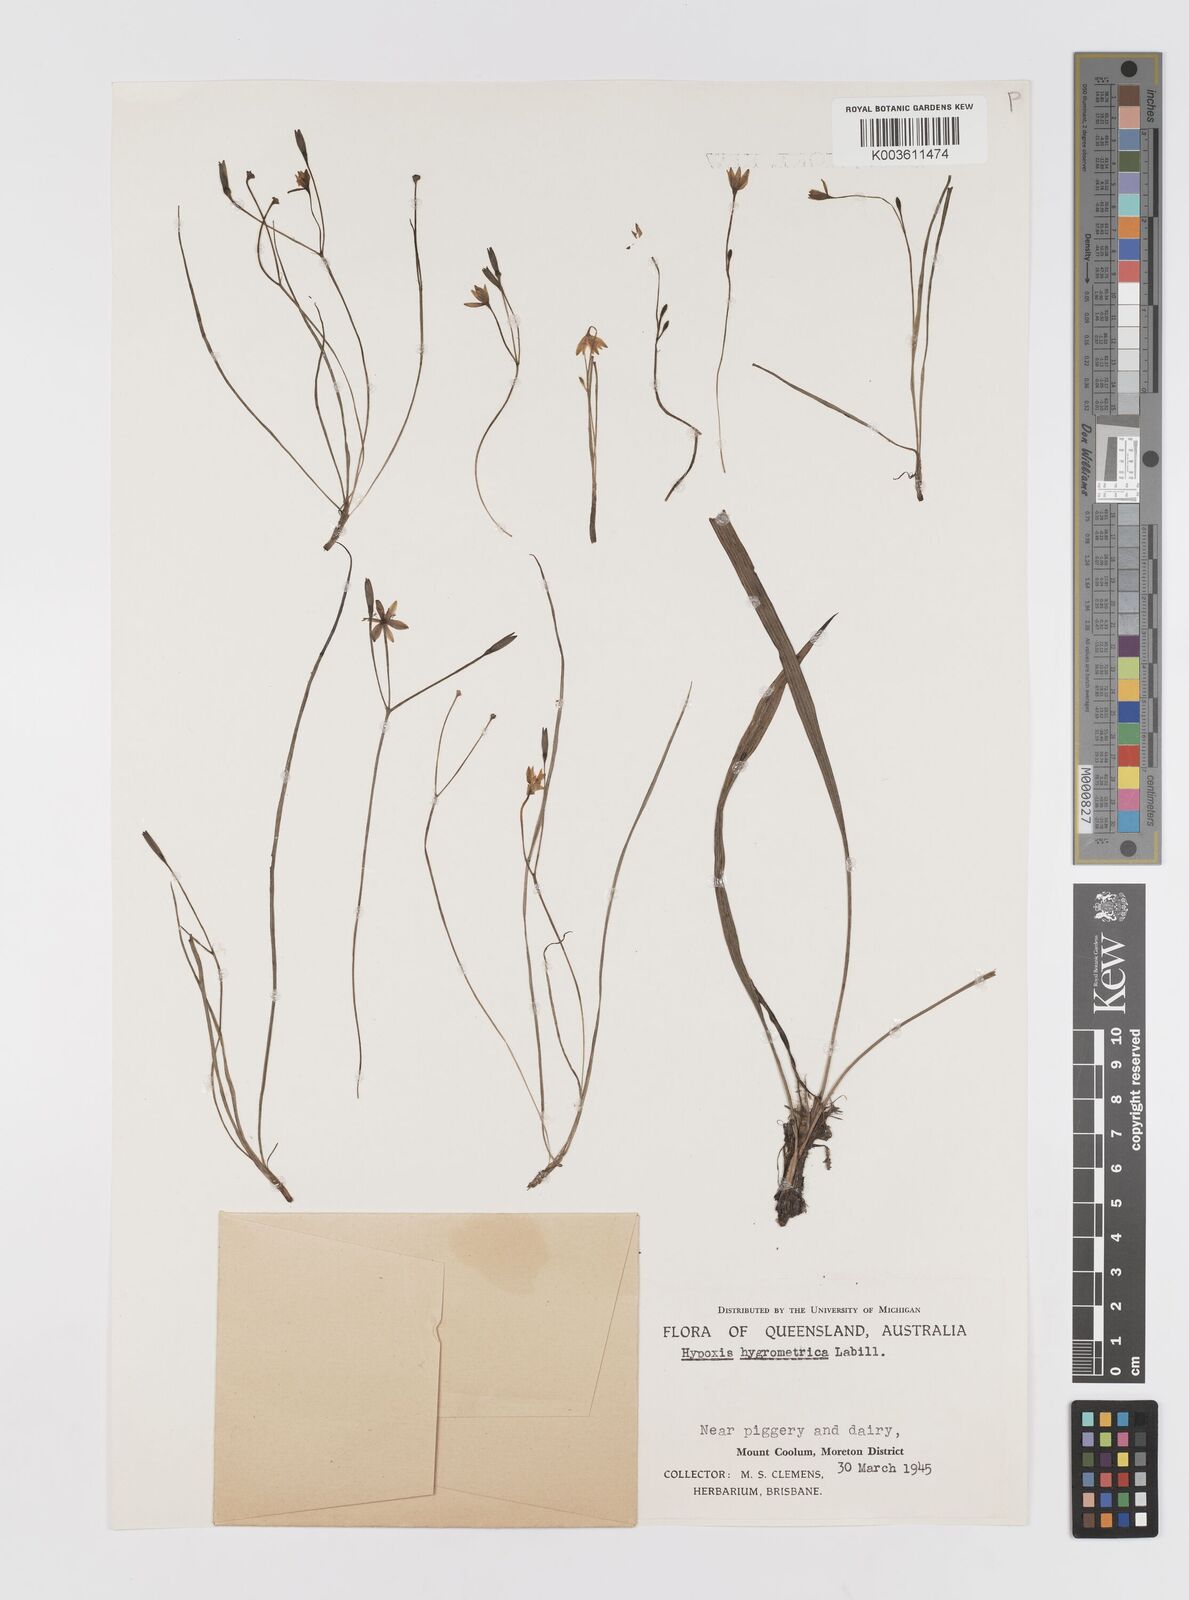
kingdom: Plantae
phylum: Tracheophyta
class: Liliopsida
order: Asparagales
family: Hypoxidaceae
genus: Hypoxis
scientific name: Hypoxis hygrometrica
